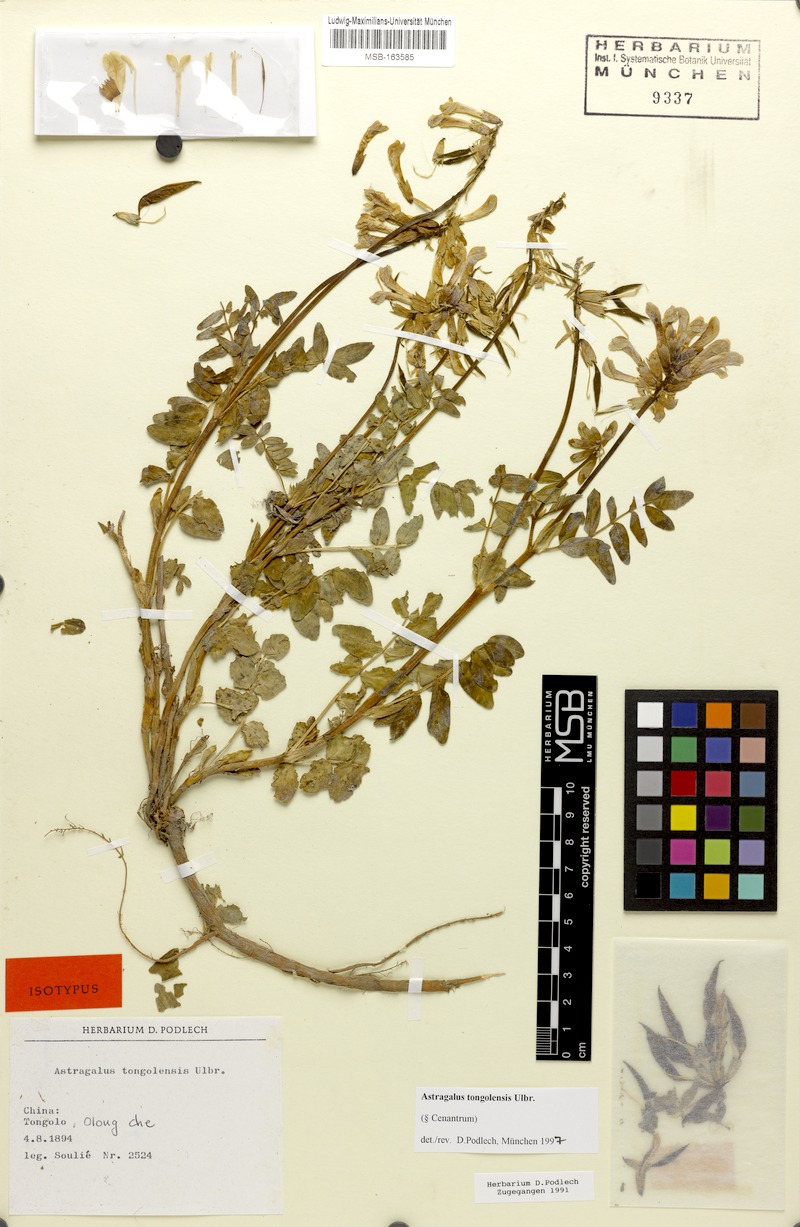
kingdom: Plantae
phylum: Tracheophyta
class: Magnoliopsida
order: Fabales
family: Fabaceae
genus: Astragalus
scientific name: Astragalus tongolensis
